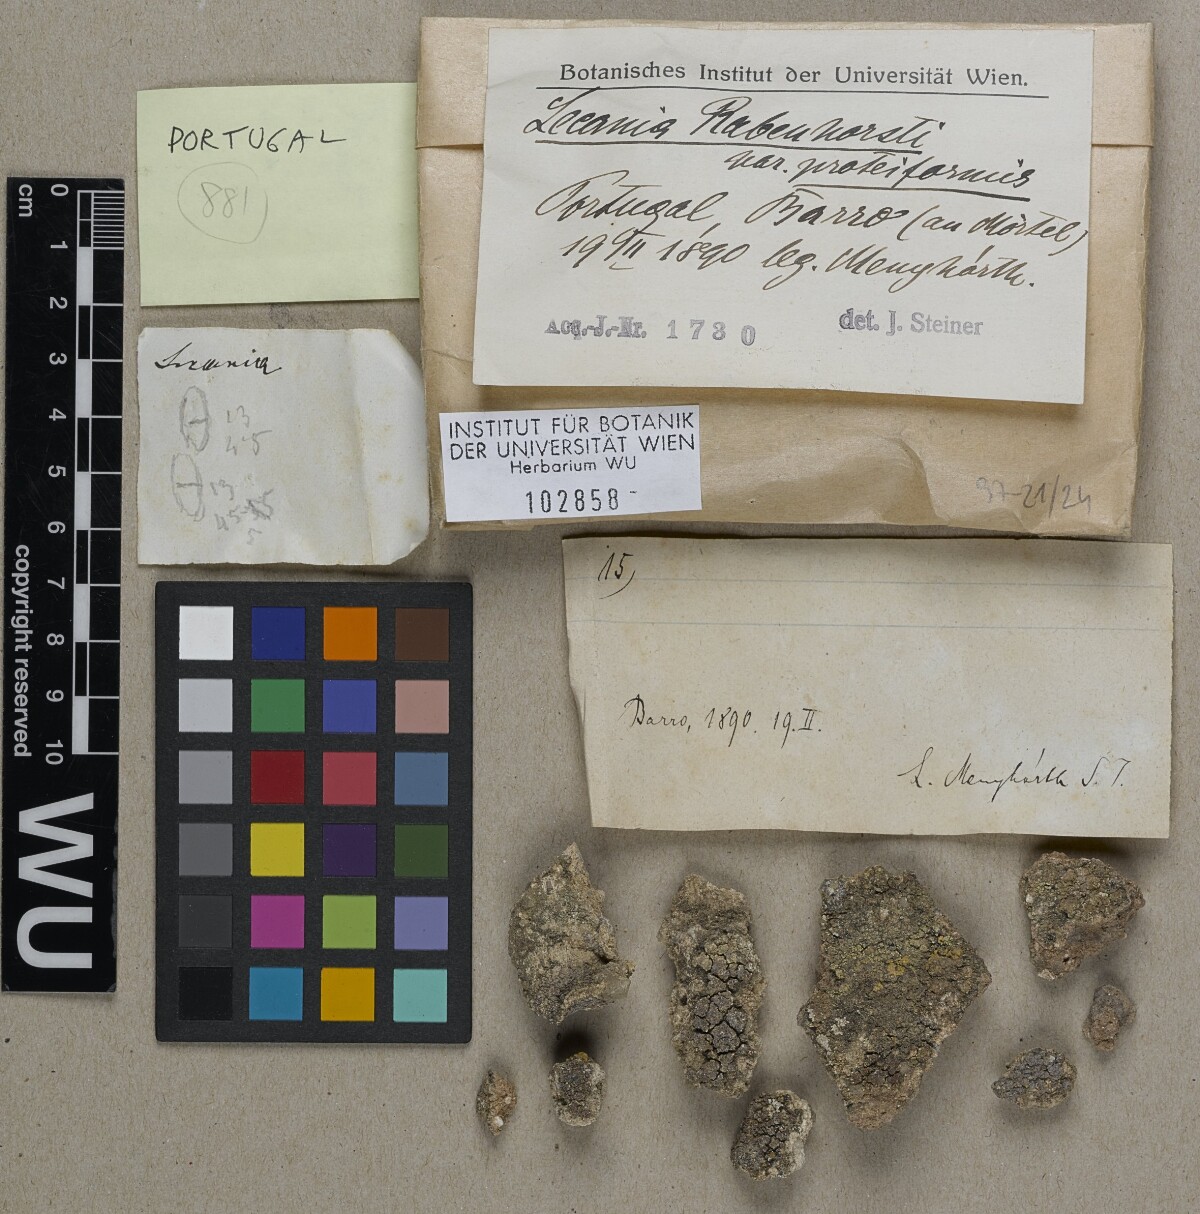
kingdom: Fungi
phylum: Ascomycota
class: Lecanoromycetes
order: Lecanorales
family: Ramalinaceae
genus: Lecania
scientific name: Lecania rabenhorstii
